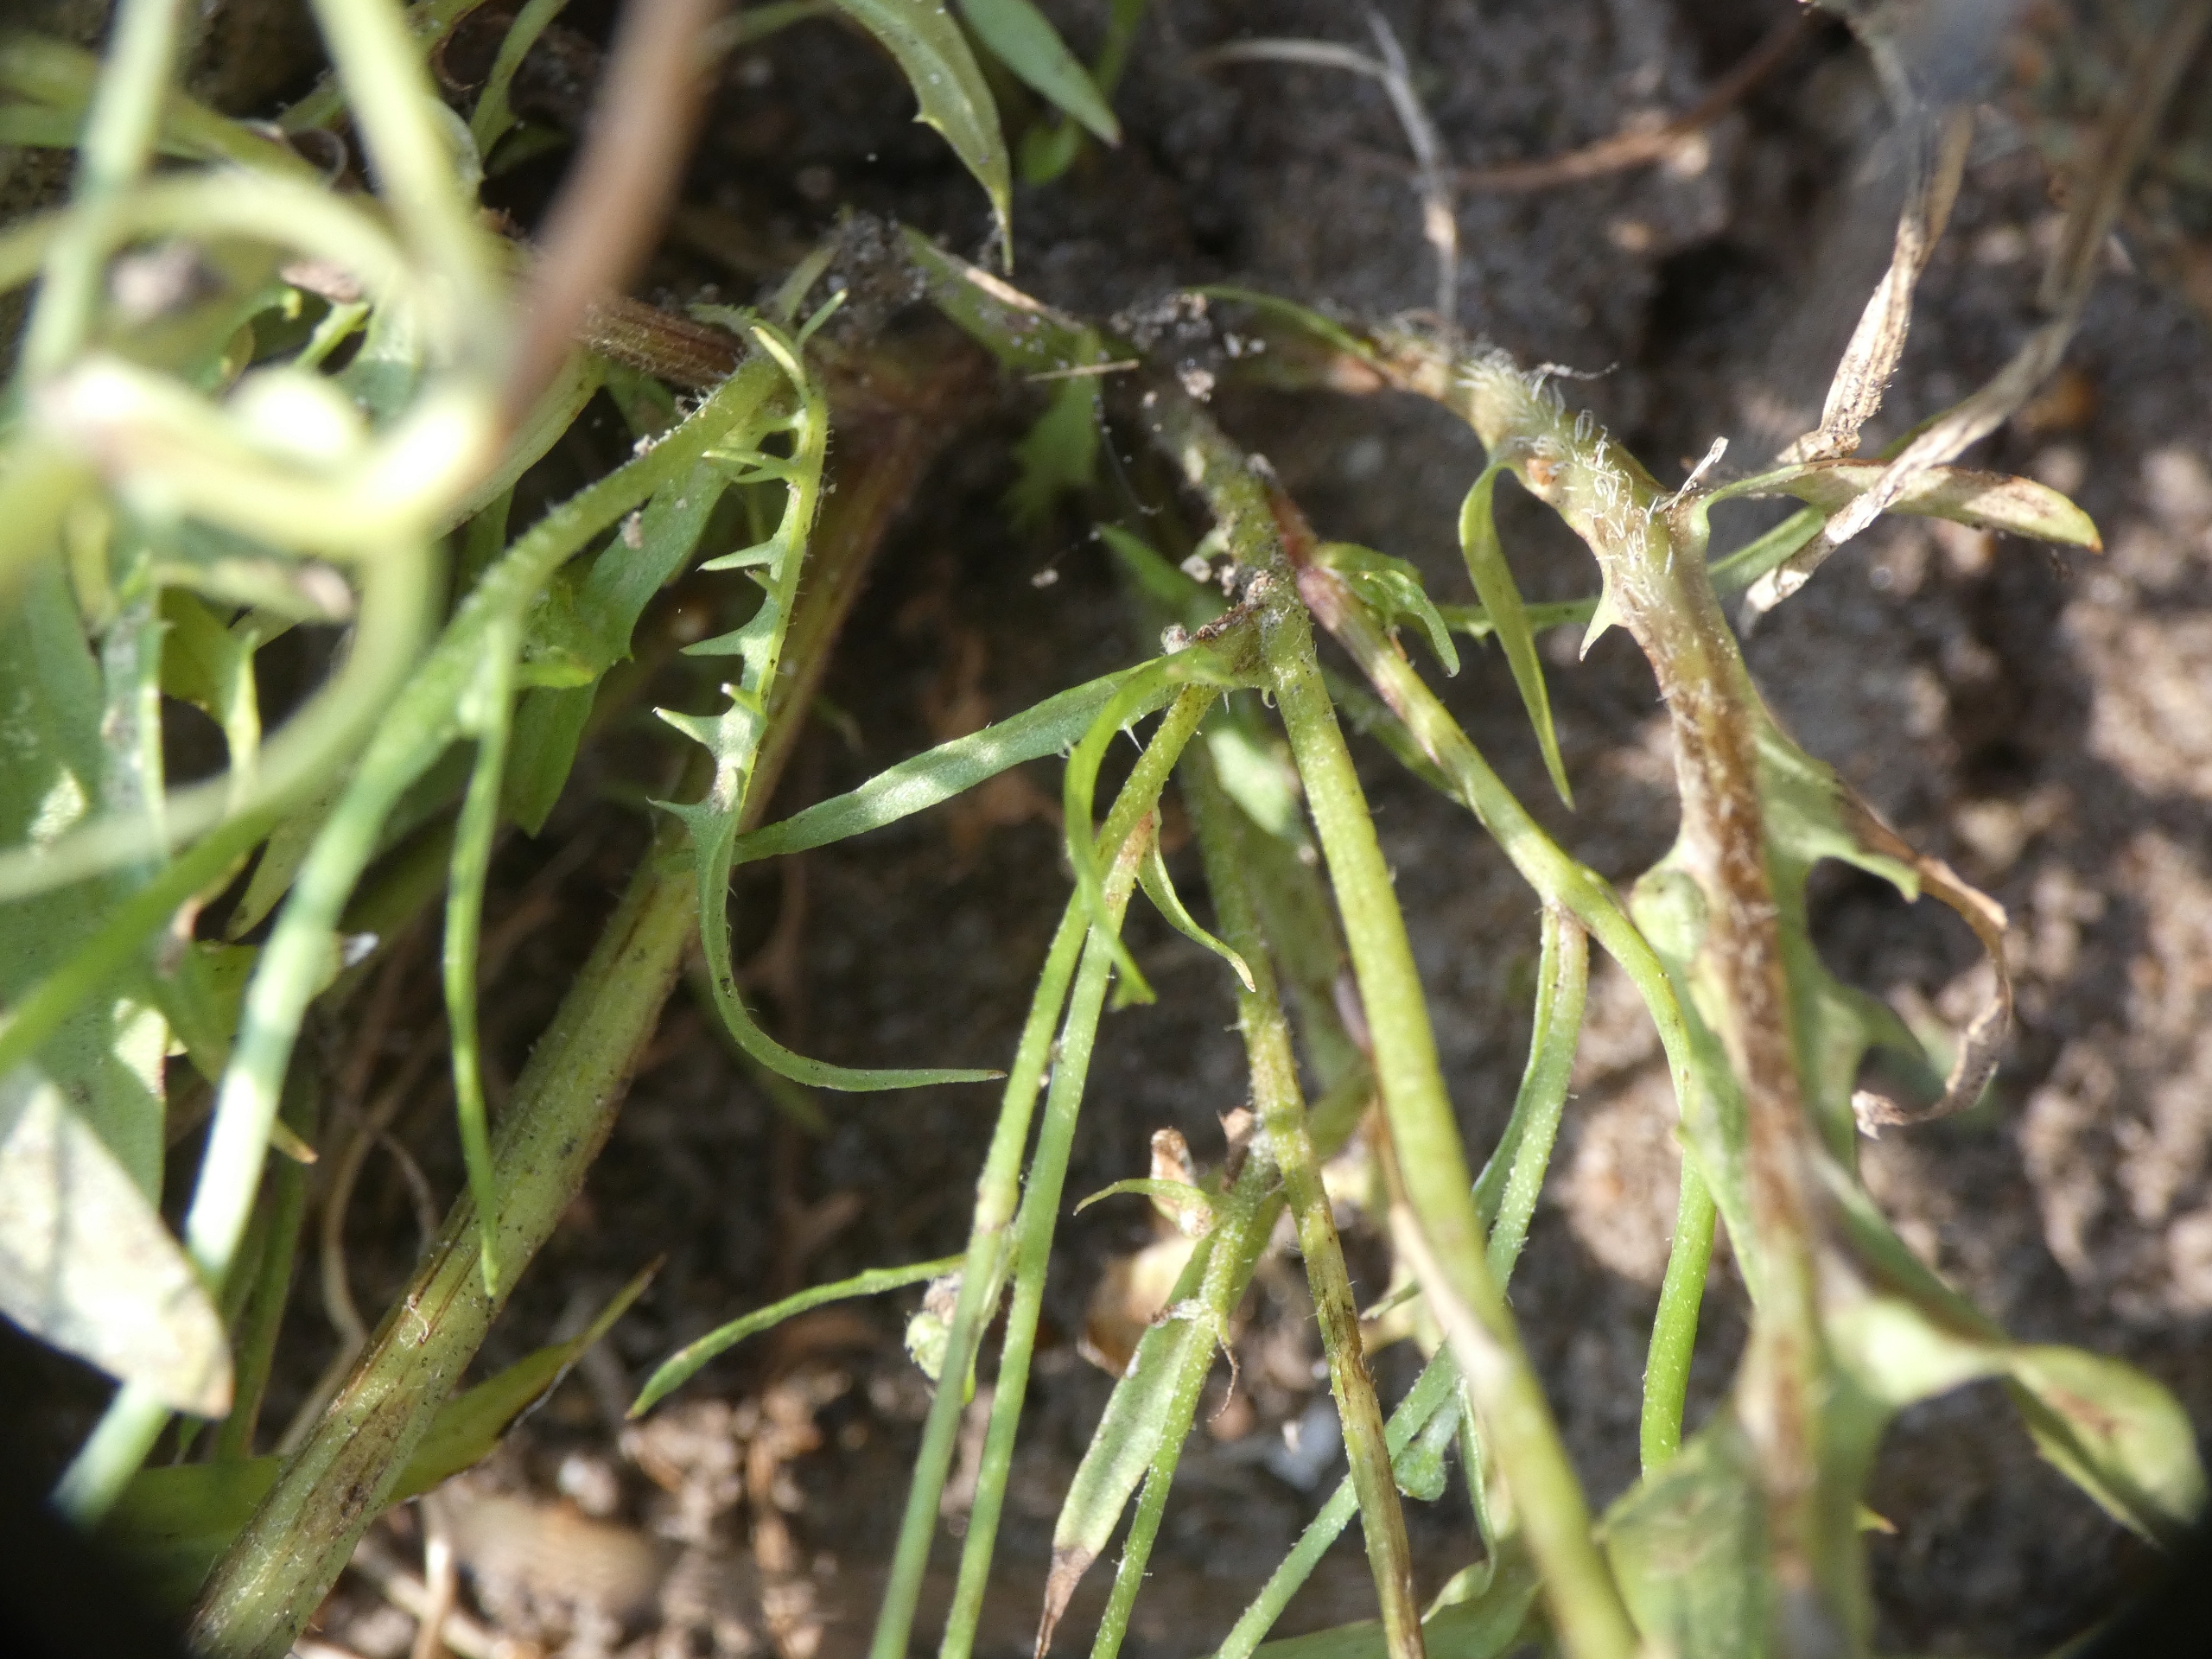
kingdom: Plantae
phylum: Tracheophyta
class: Magnoliopsida
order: Asterales
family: Asteraceae
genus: Crepis
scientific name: Crepis capillaris
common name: Grøn høgeskæg
